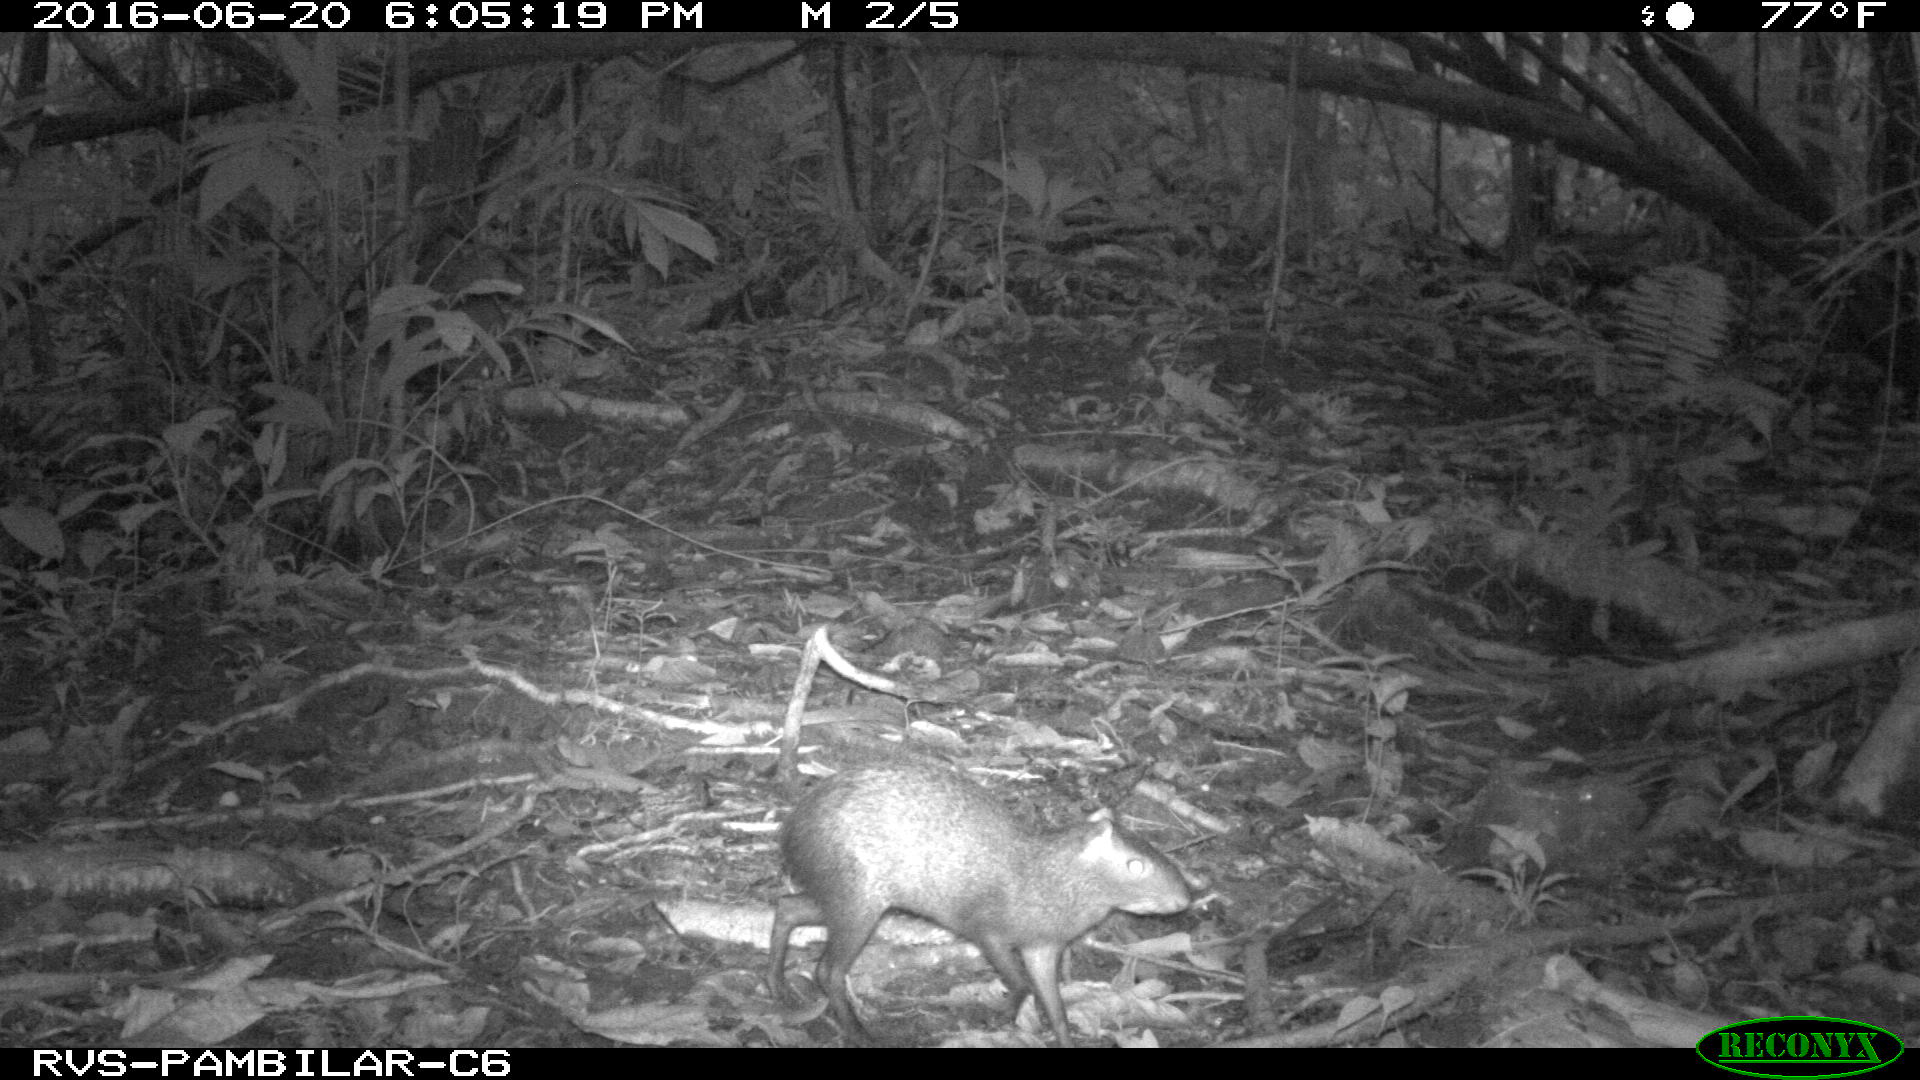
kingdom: Animalia
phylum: Chordata
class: Mammalia
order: Rodentia
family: Dasyproctidae
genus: Dasyprocta
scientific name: Dasyprocta punctata
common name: Central american agouti
